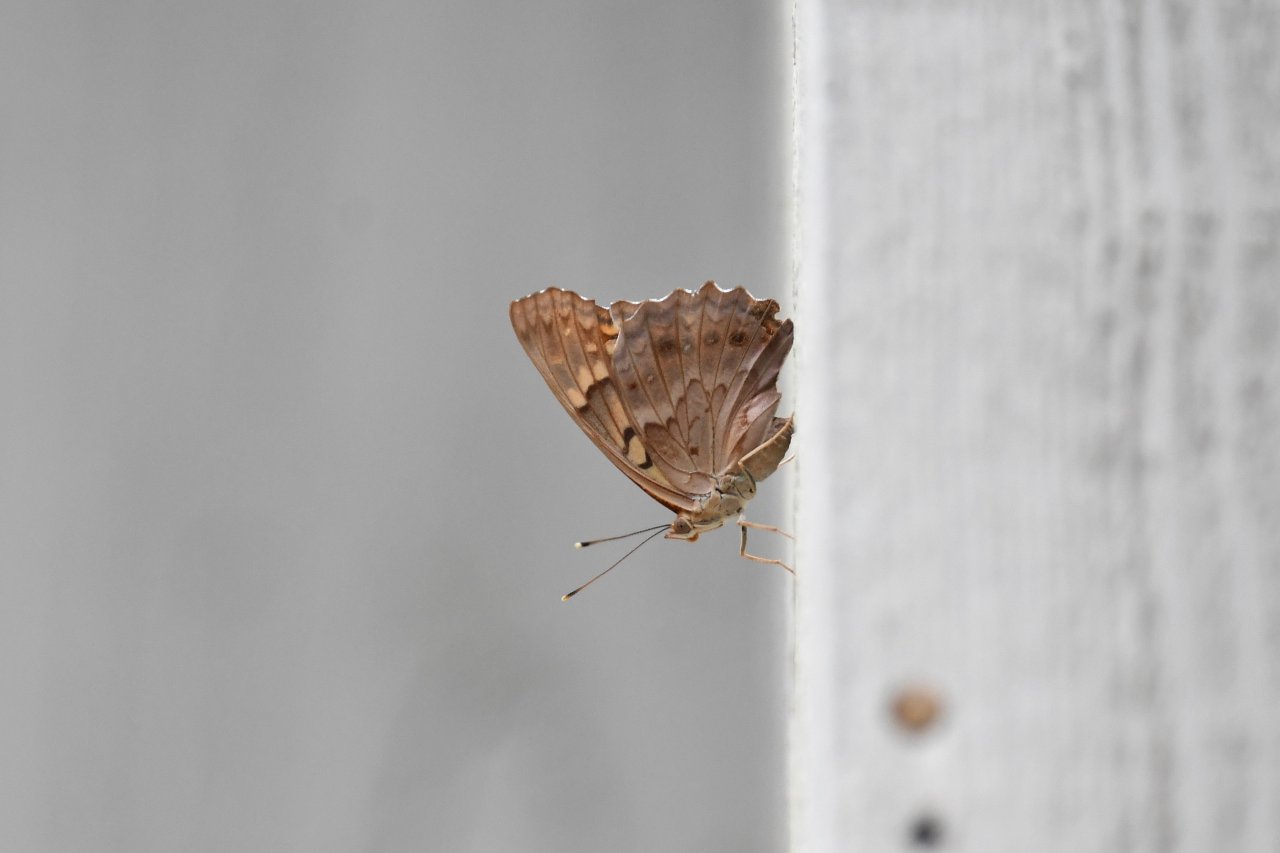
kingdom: Animalia
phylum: Arthropoda
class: Insecta
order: Lepidoptera
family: Nymphalidae
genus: Asterocampa
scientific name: Asterocampa clyton
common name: Tawny Emperor
